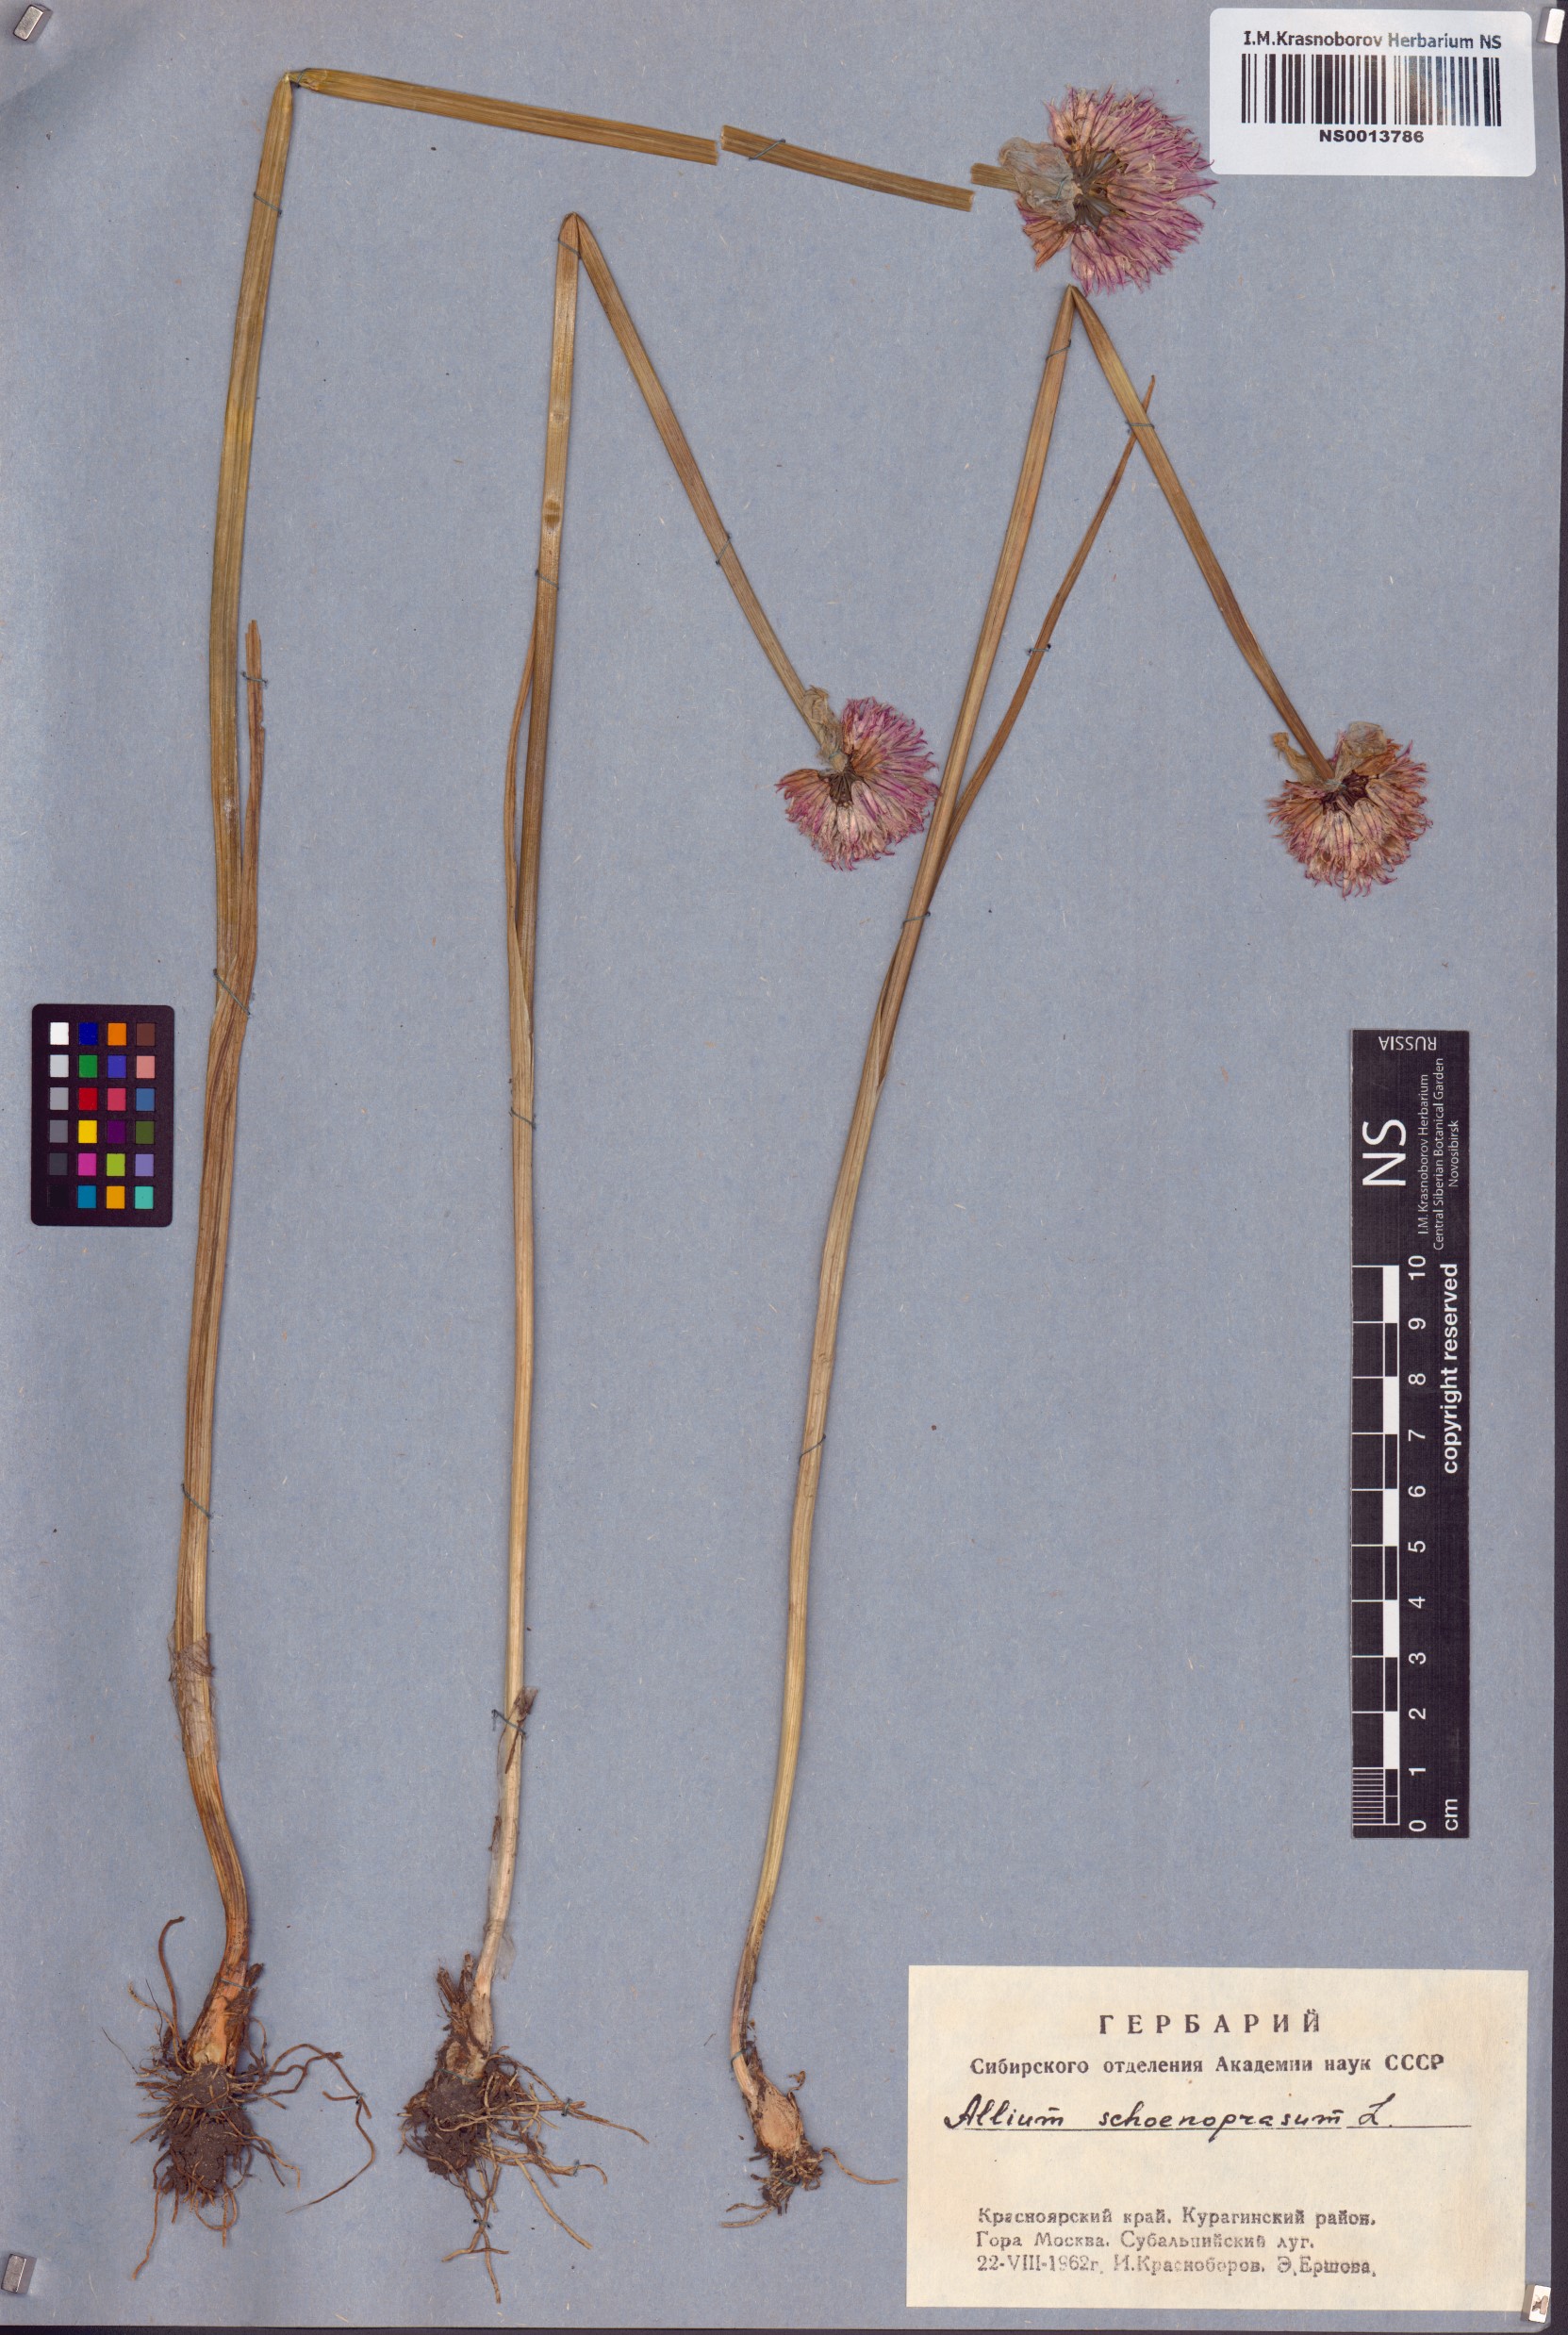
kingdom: Plantae
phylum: Tracheophyta
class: Liliopsida
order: Asparagales
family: Amaryllidaceae
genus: Allium
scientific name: Allium schoenoprasum
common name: Chives
